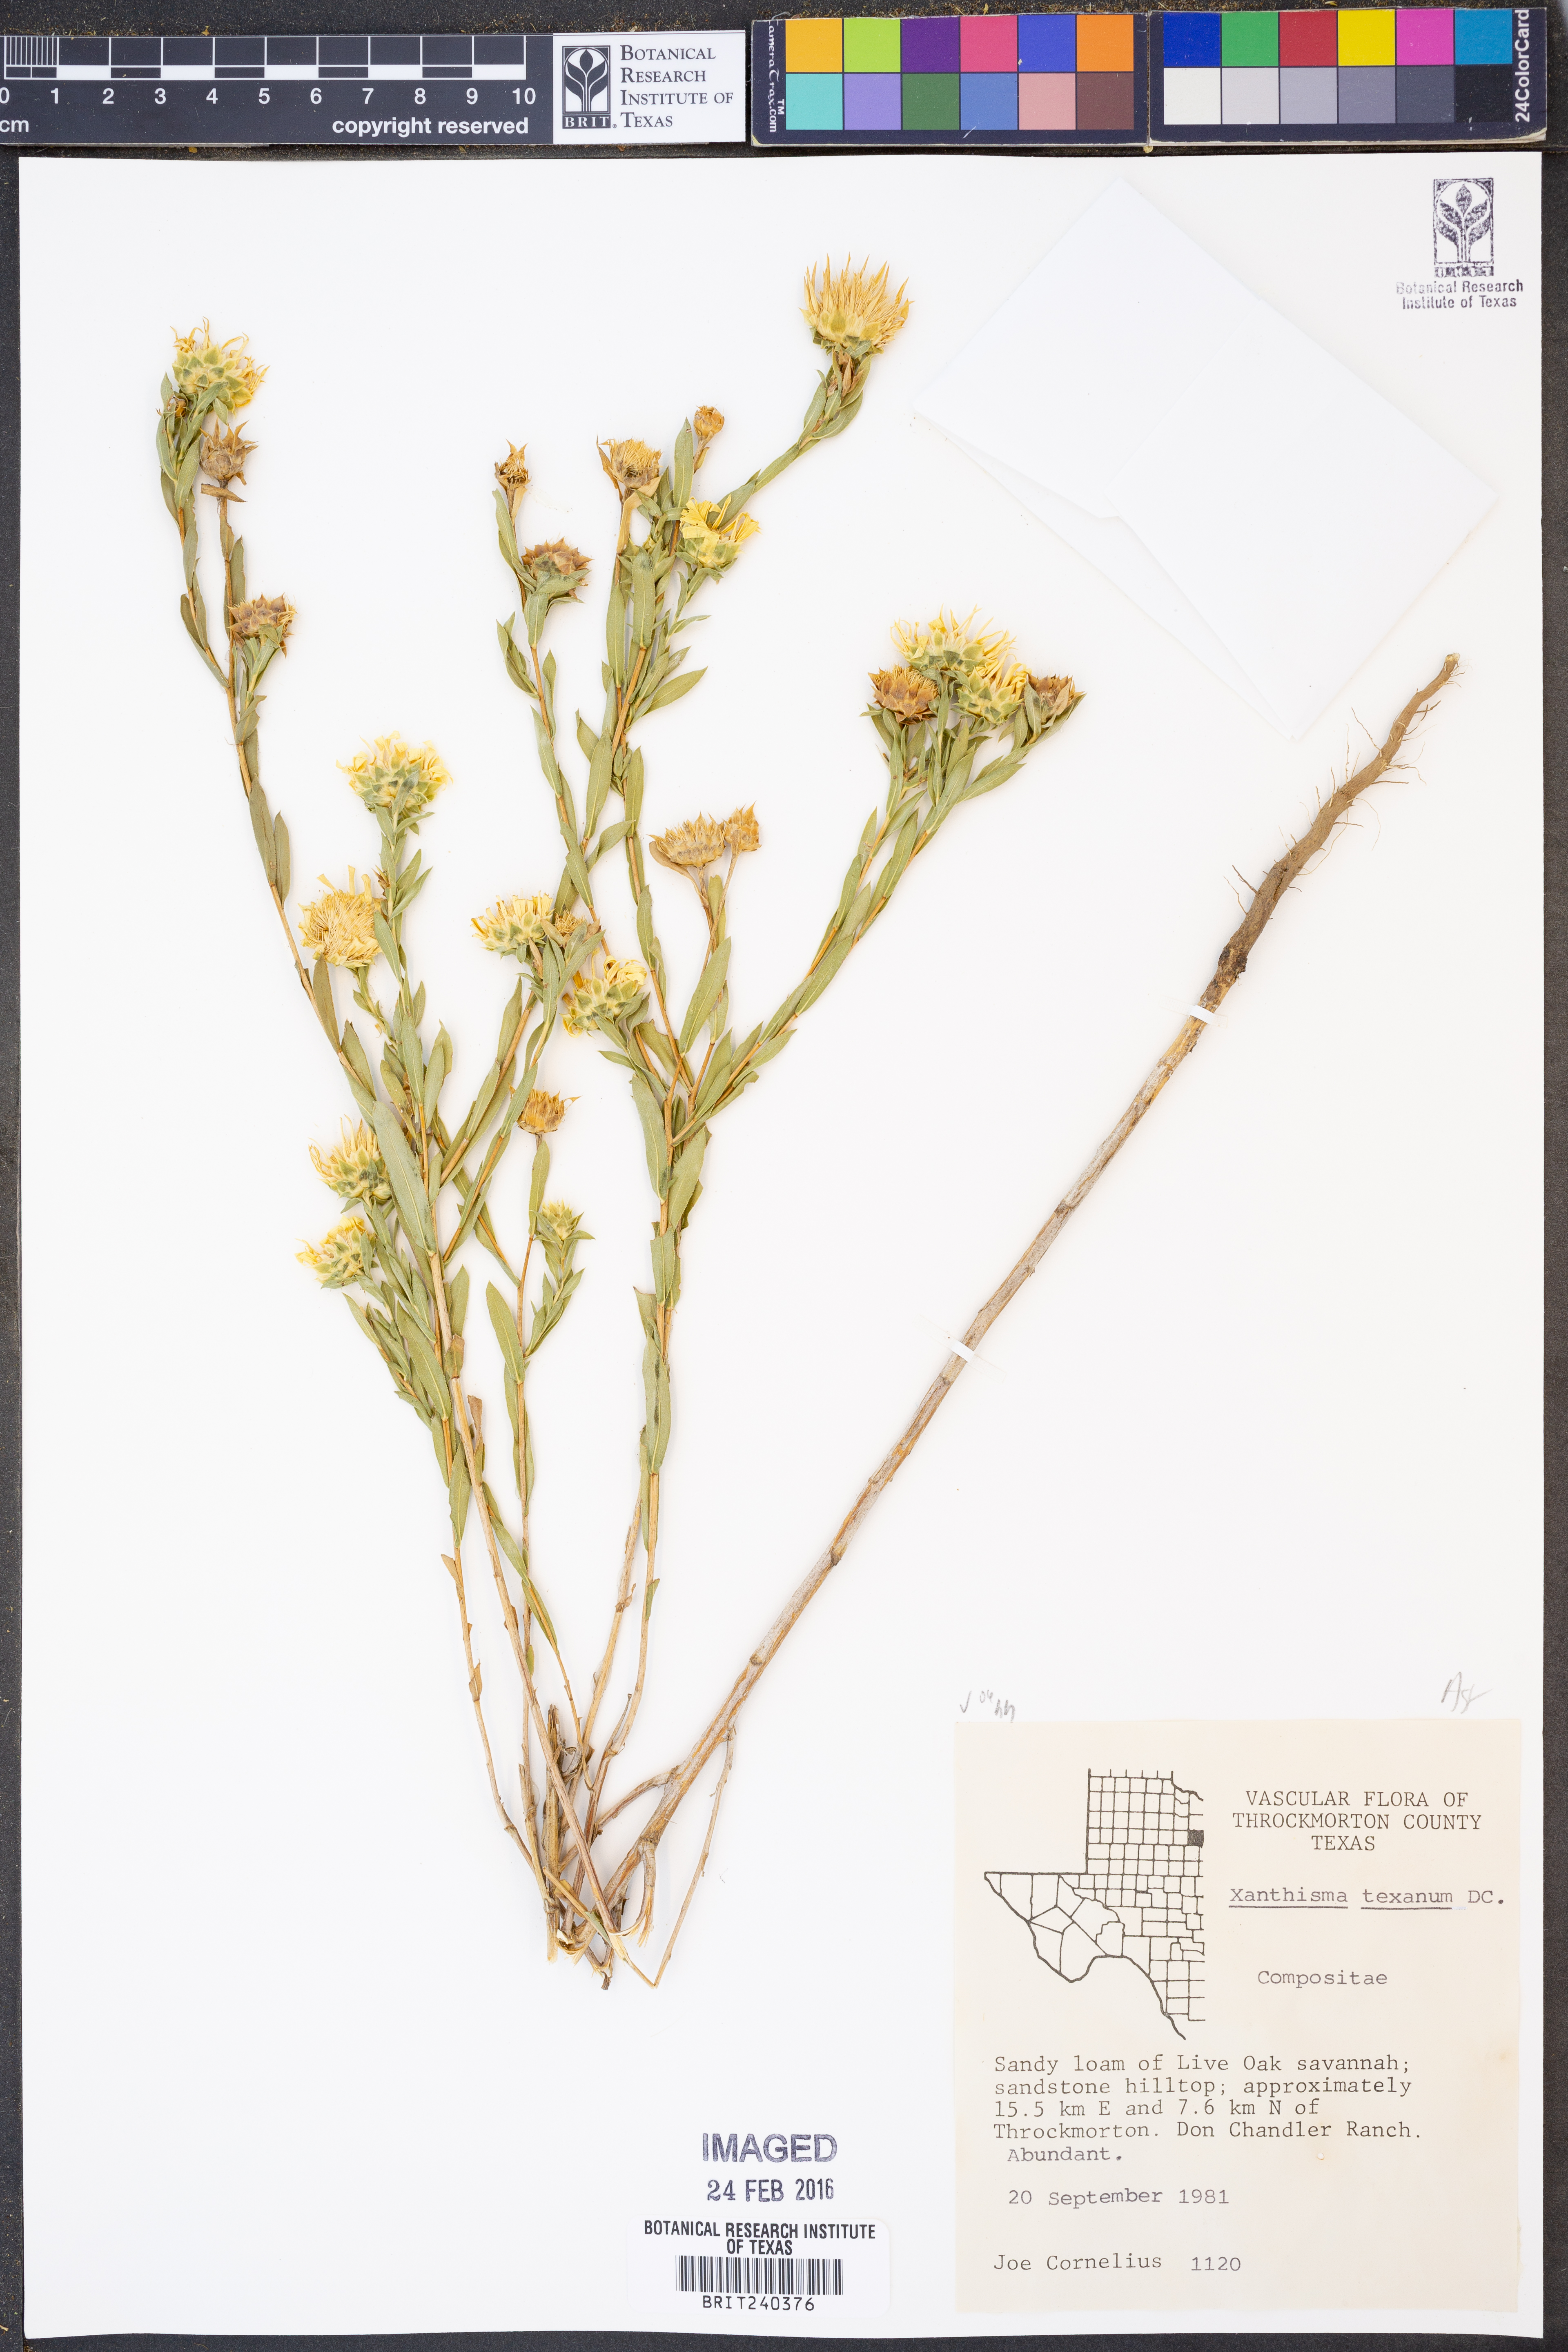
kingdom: Plantae
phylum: Tracheophyta
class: Magnoliopsida
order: Asterales
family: Asteraceae
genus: Xanthisma
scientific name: Xanthisma texanum
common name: Texas sleepy daisy
